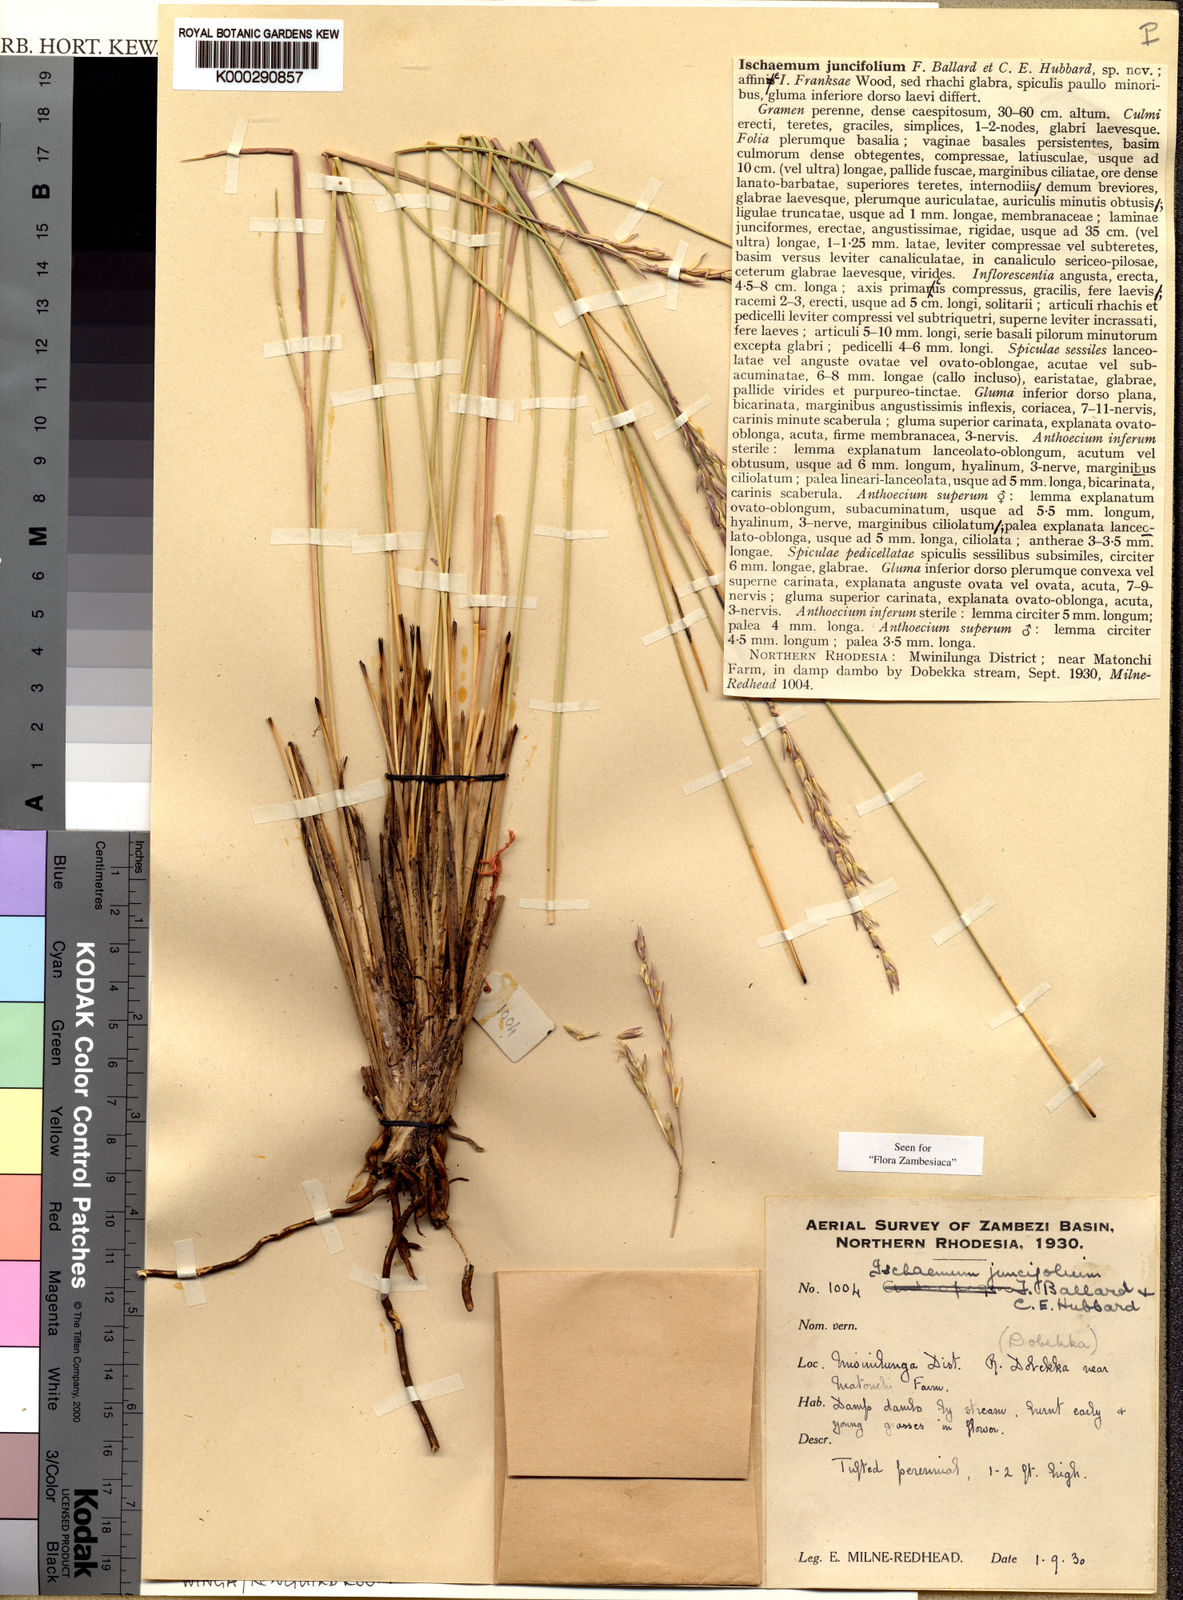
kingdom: Plantae
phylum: Tracheophyta
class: Liliopsida
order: Poales
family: Poaceae
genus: Phacelurus
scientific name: Phacelurus franksiae
